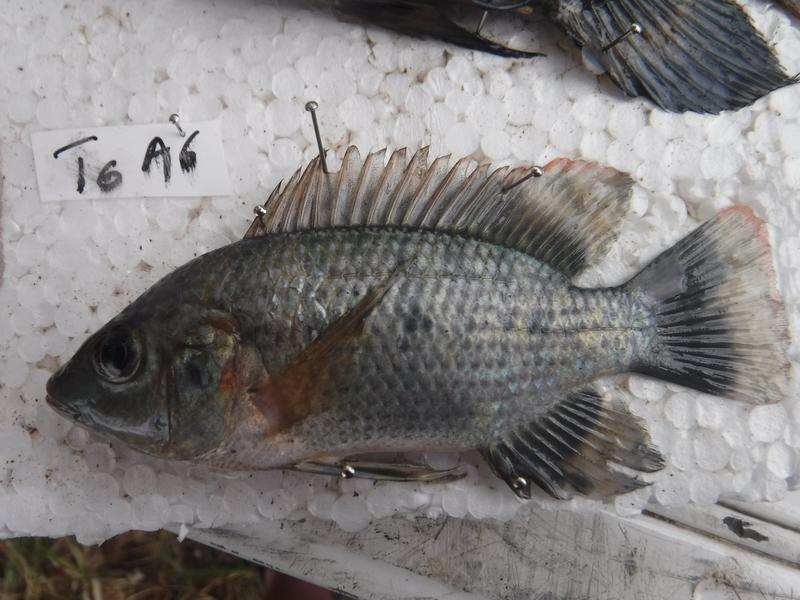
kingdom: Animalia
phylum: Chordata
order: Perciformes
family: Cichlidae
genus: Oreochromis
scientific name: Oreochromis urolepis
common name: Wami tilapia
